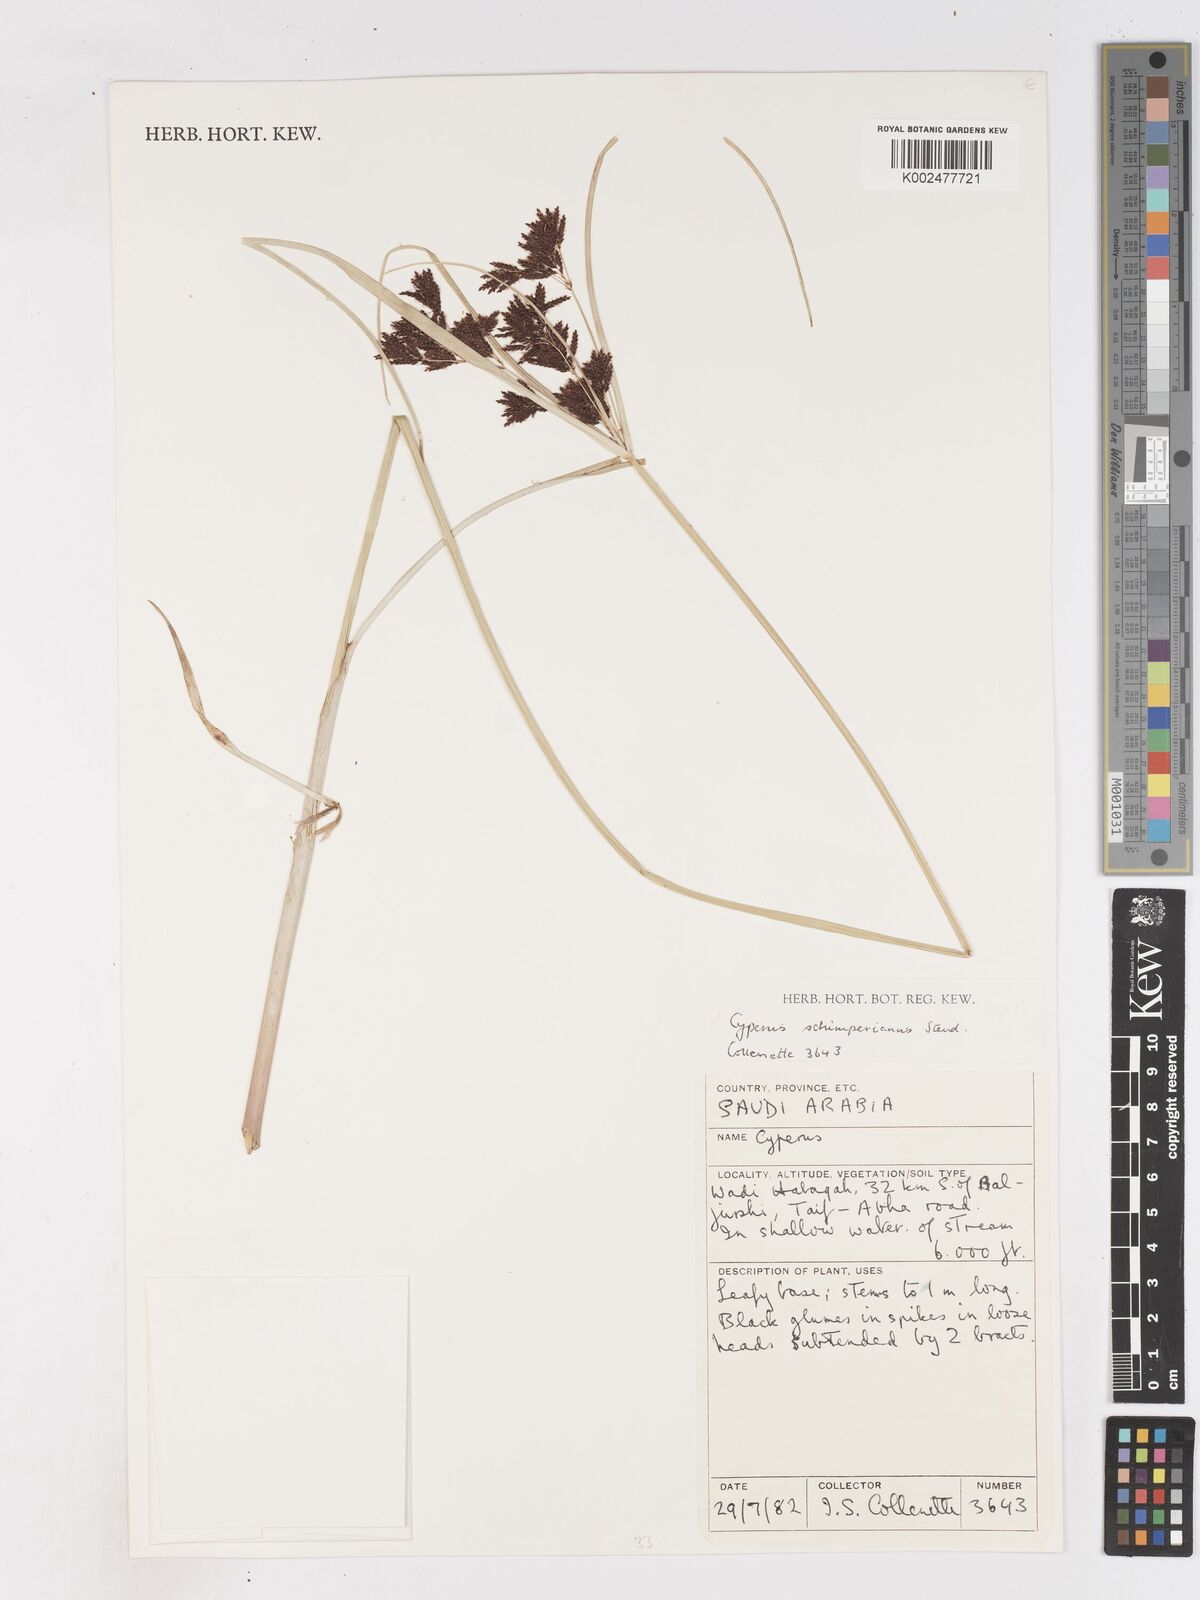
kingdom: Plantae
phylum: Tracheophyta
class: Liliopsida
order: Poales
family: Cyperaceae
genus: Cyperus
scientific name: Cyperus schimperianus
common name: Schimper flatsedge
